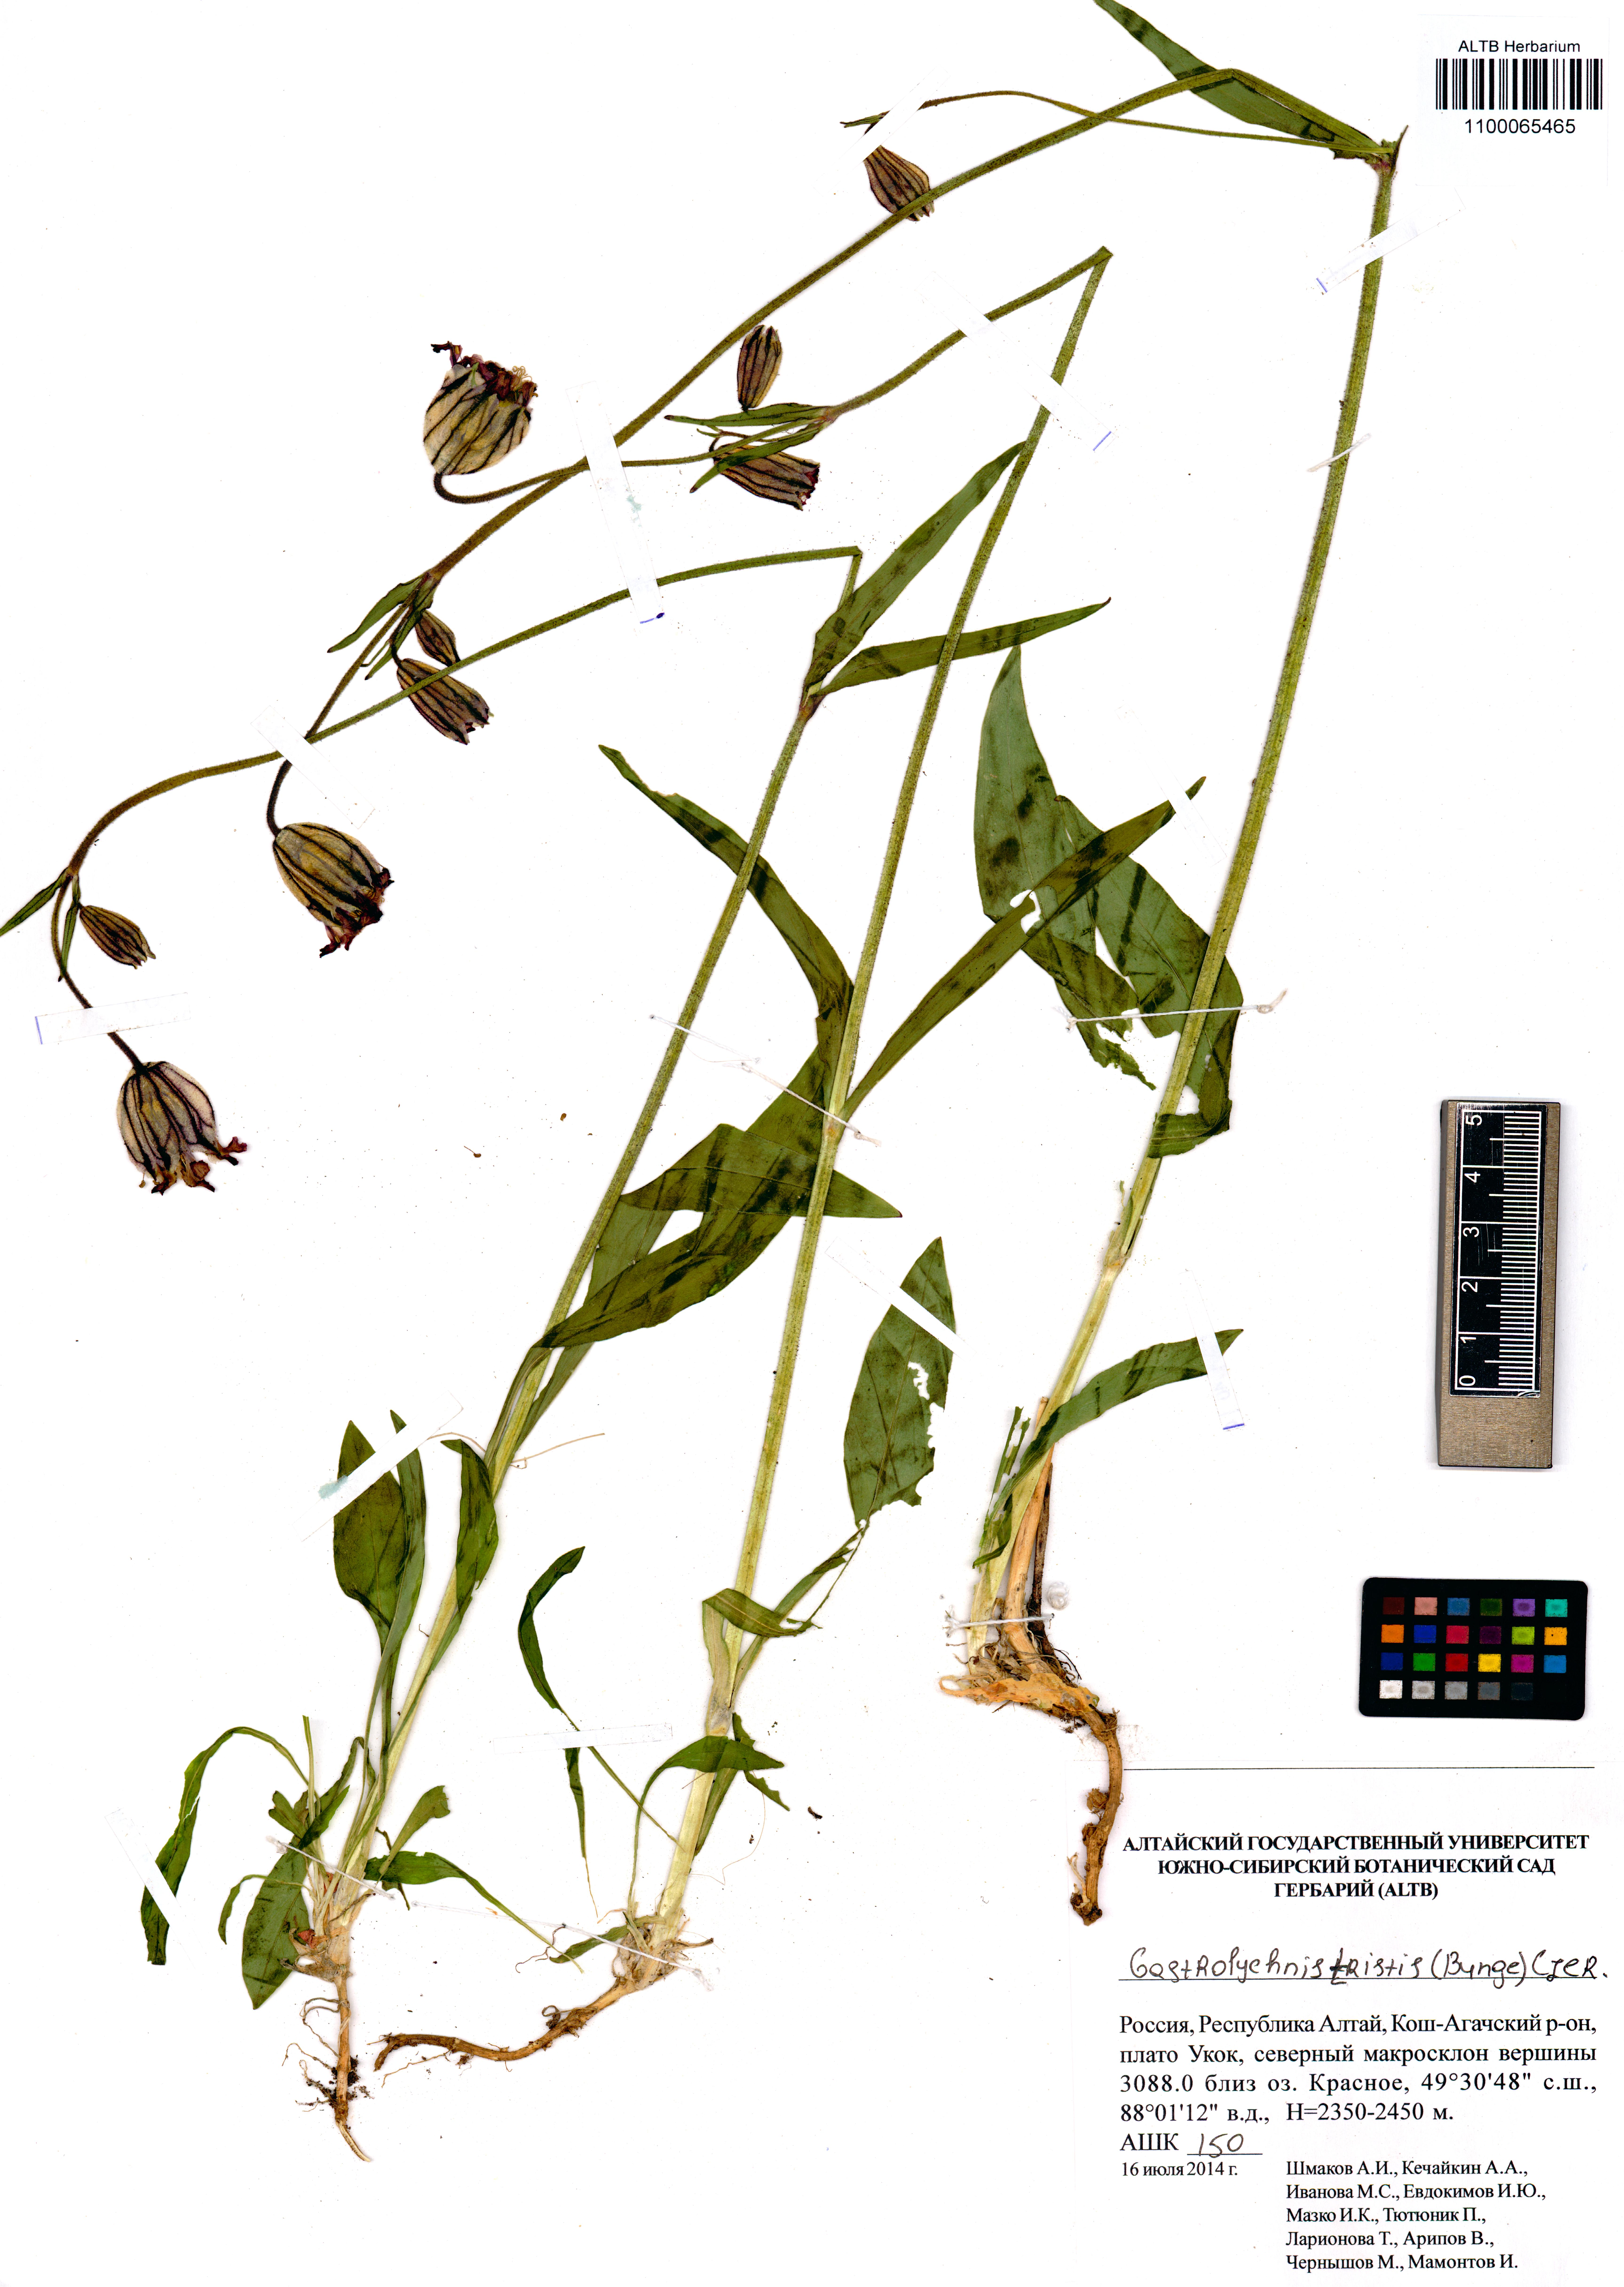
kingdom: Plantae
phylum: Tracheophyta
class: Magnoliopsida
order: Caryophyllales
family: Caryophyllaceae
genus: Silene
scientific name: Silene bungei
